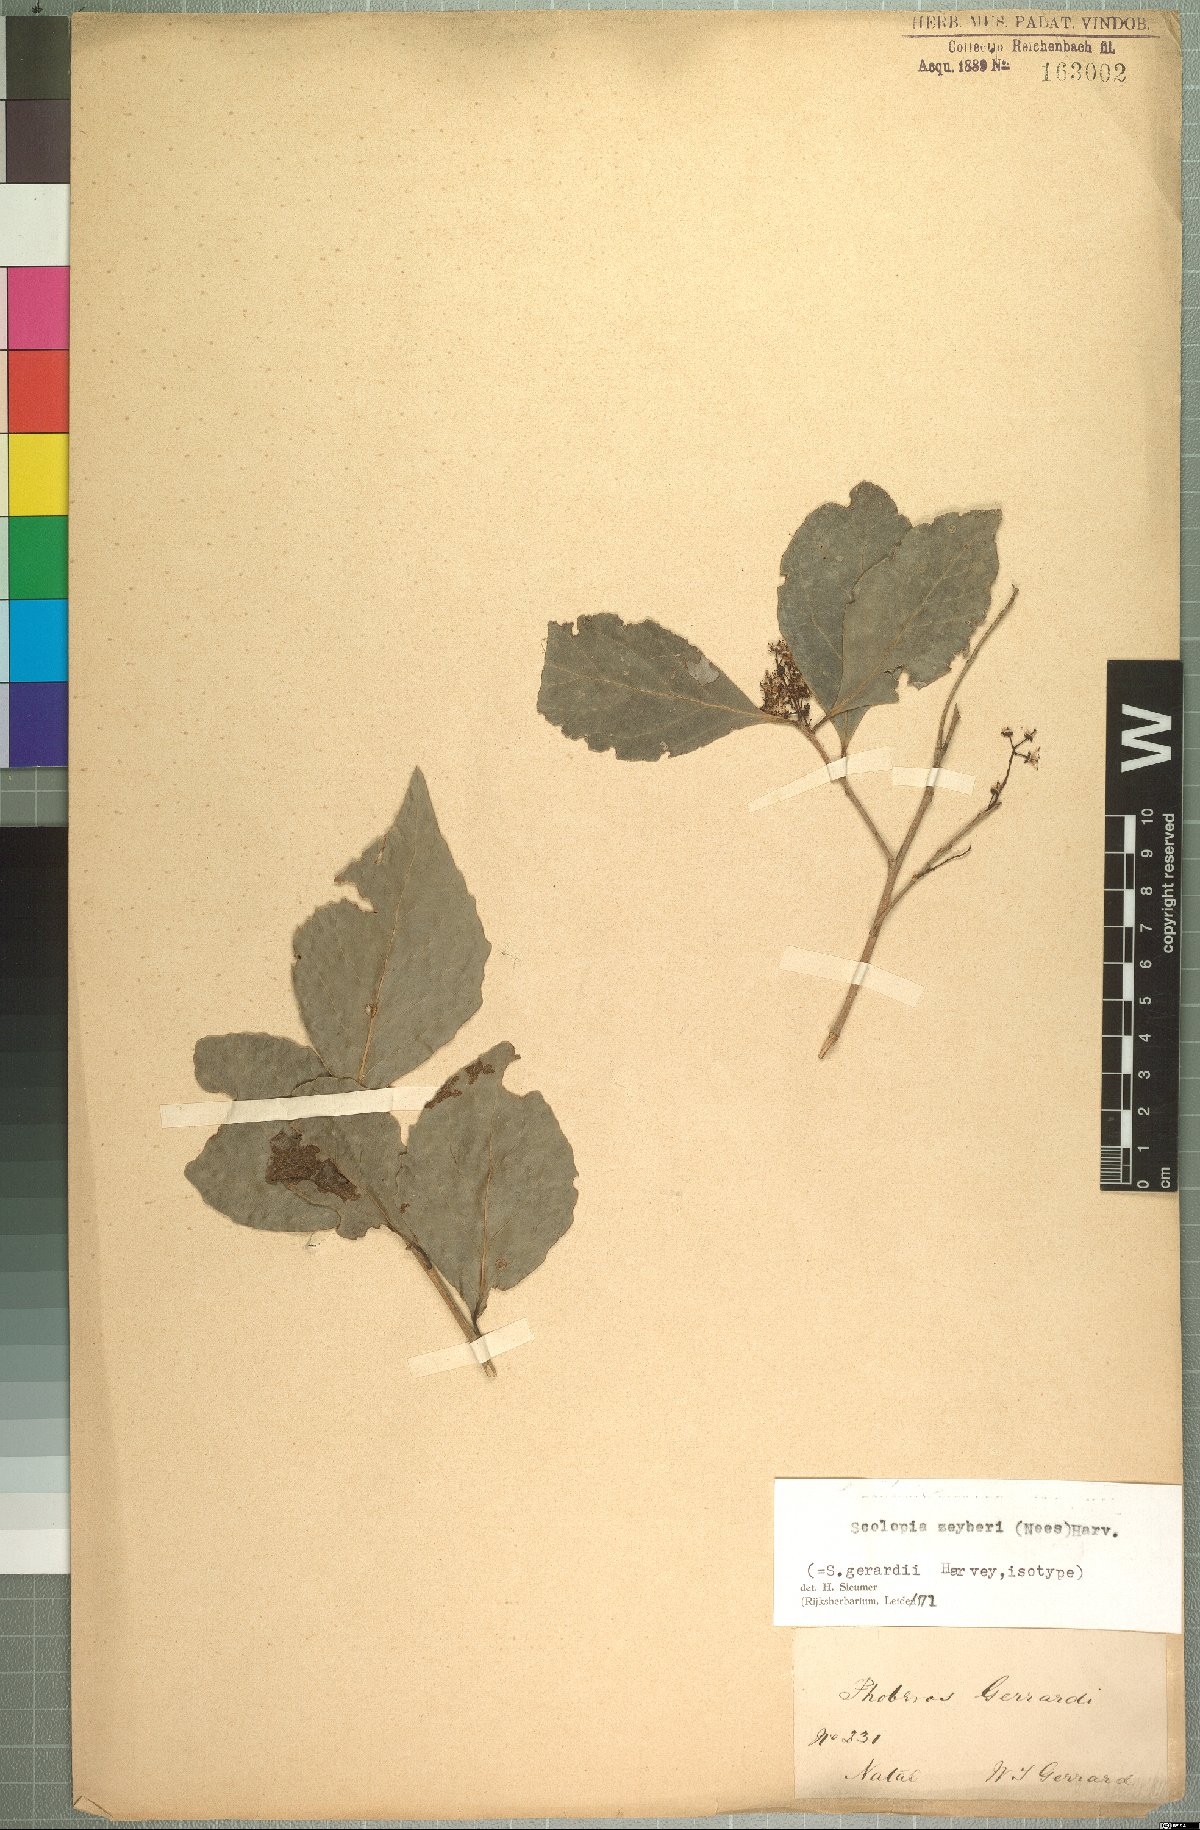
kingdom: Plantae
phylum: Tracheophyta
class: Magnoliopsida
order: Malpighiales
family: Salicaceae
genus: Scolopia
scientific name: Scolopia zeyheri
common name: Thorn pear
